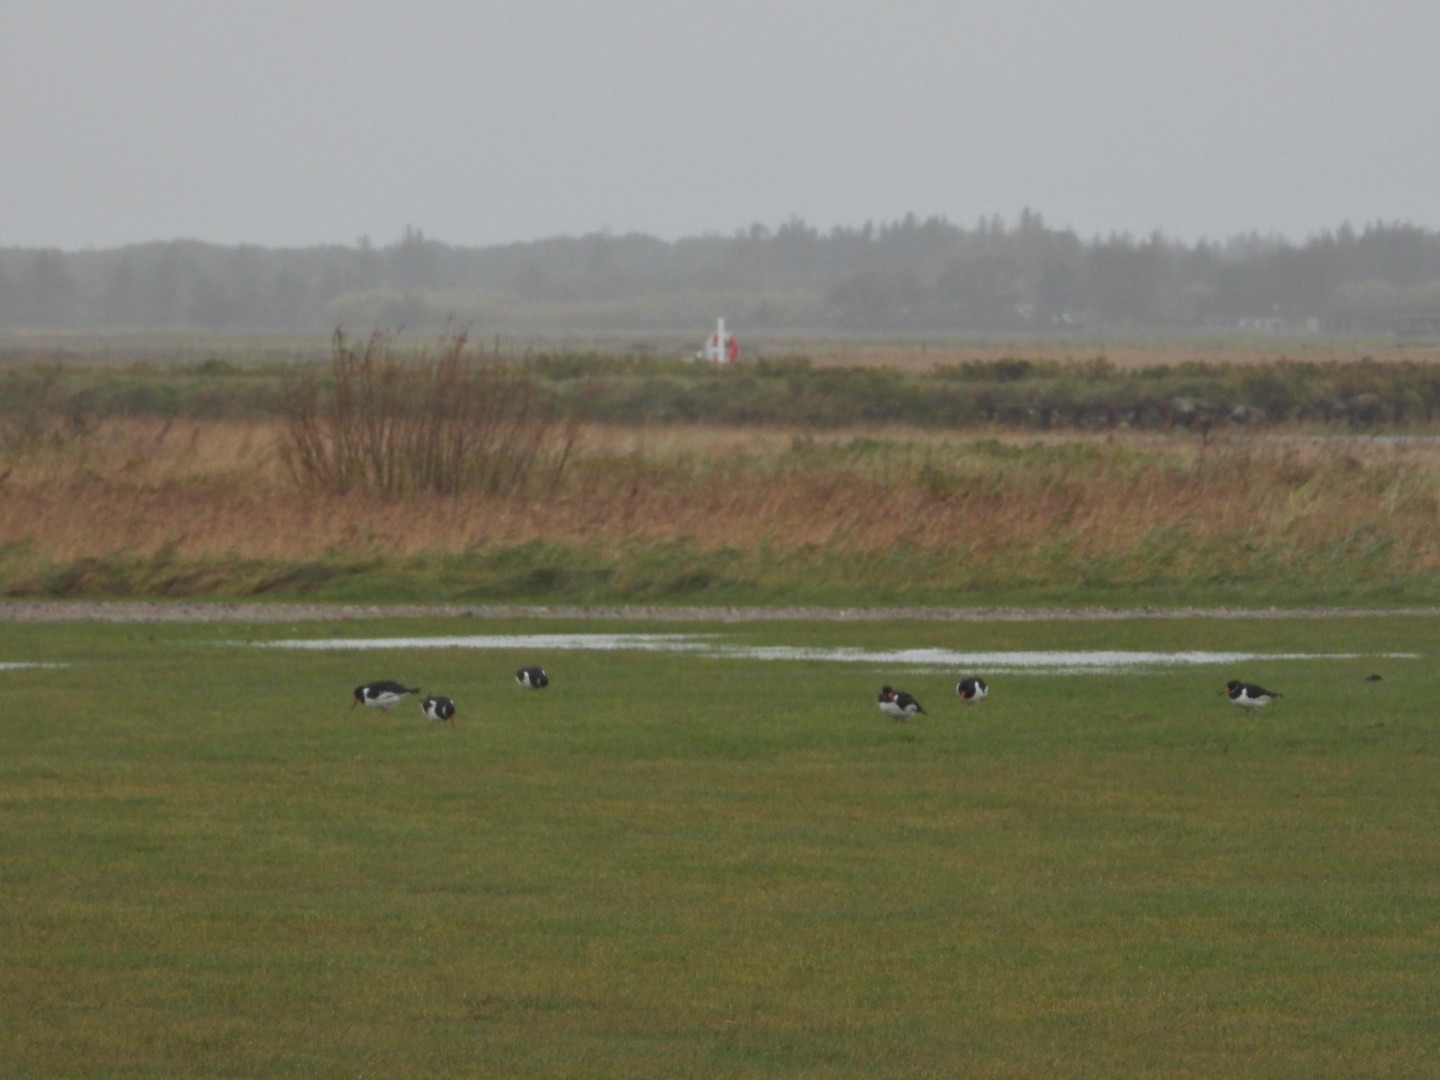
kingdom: Animalia
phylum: Chordata
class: Aves
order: Charadriiformes
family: Haematopodidae
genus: Haematopus
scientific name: Haematopus ostralegus
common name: Strandskade
